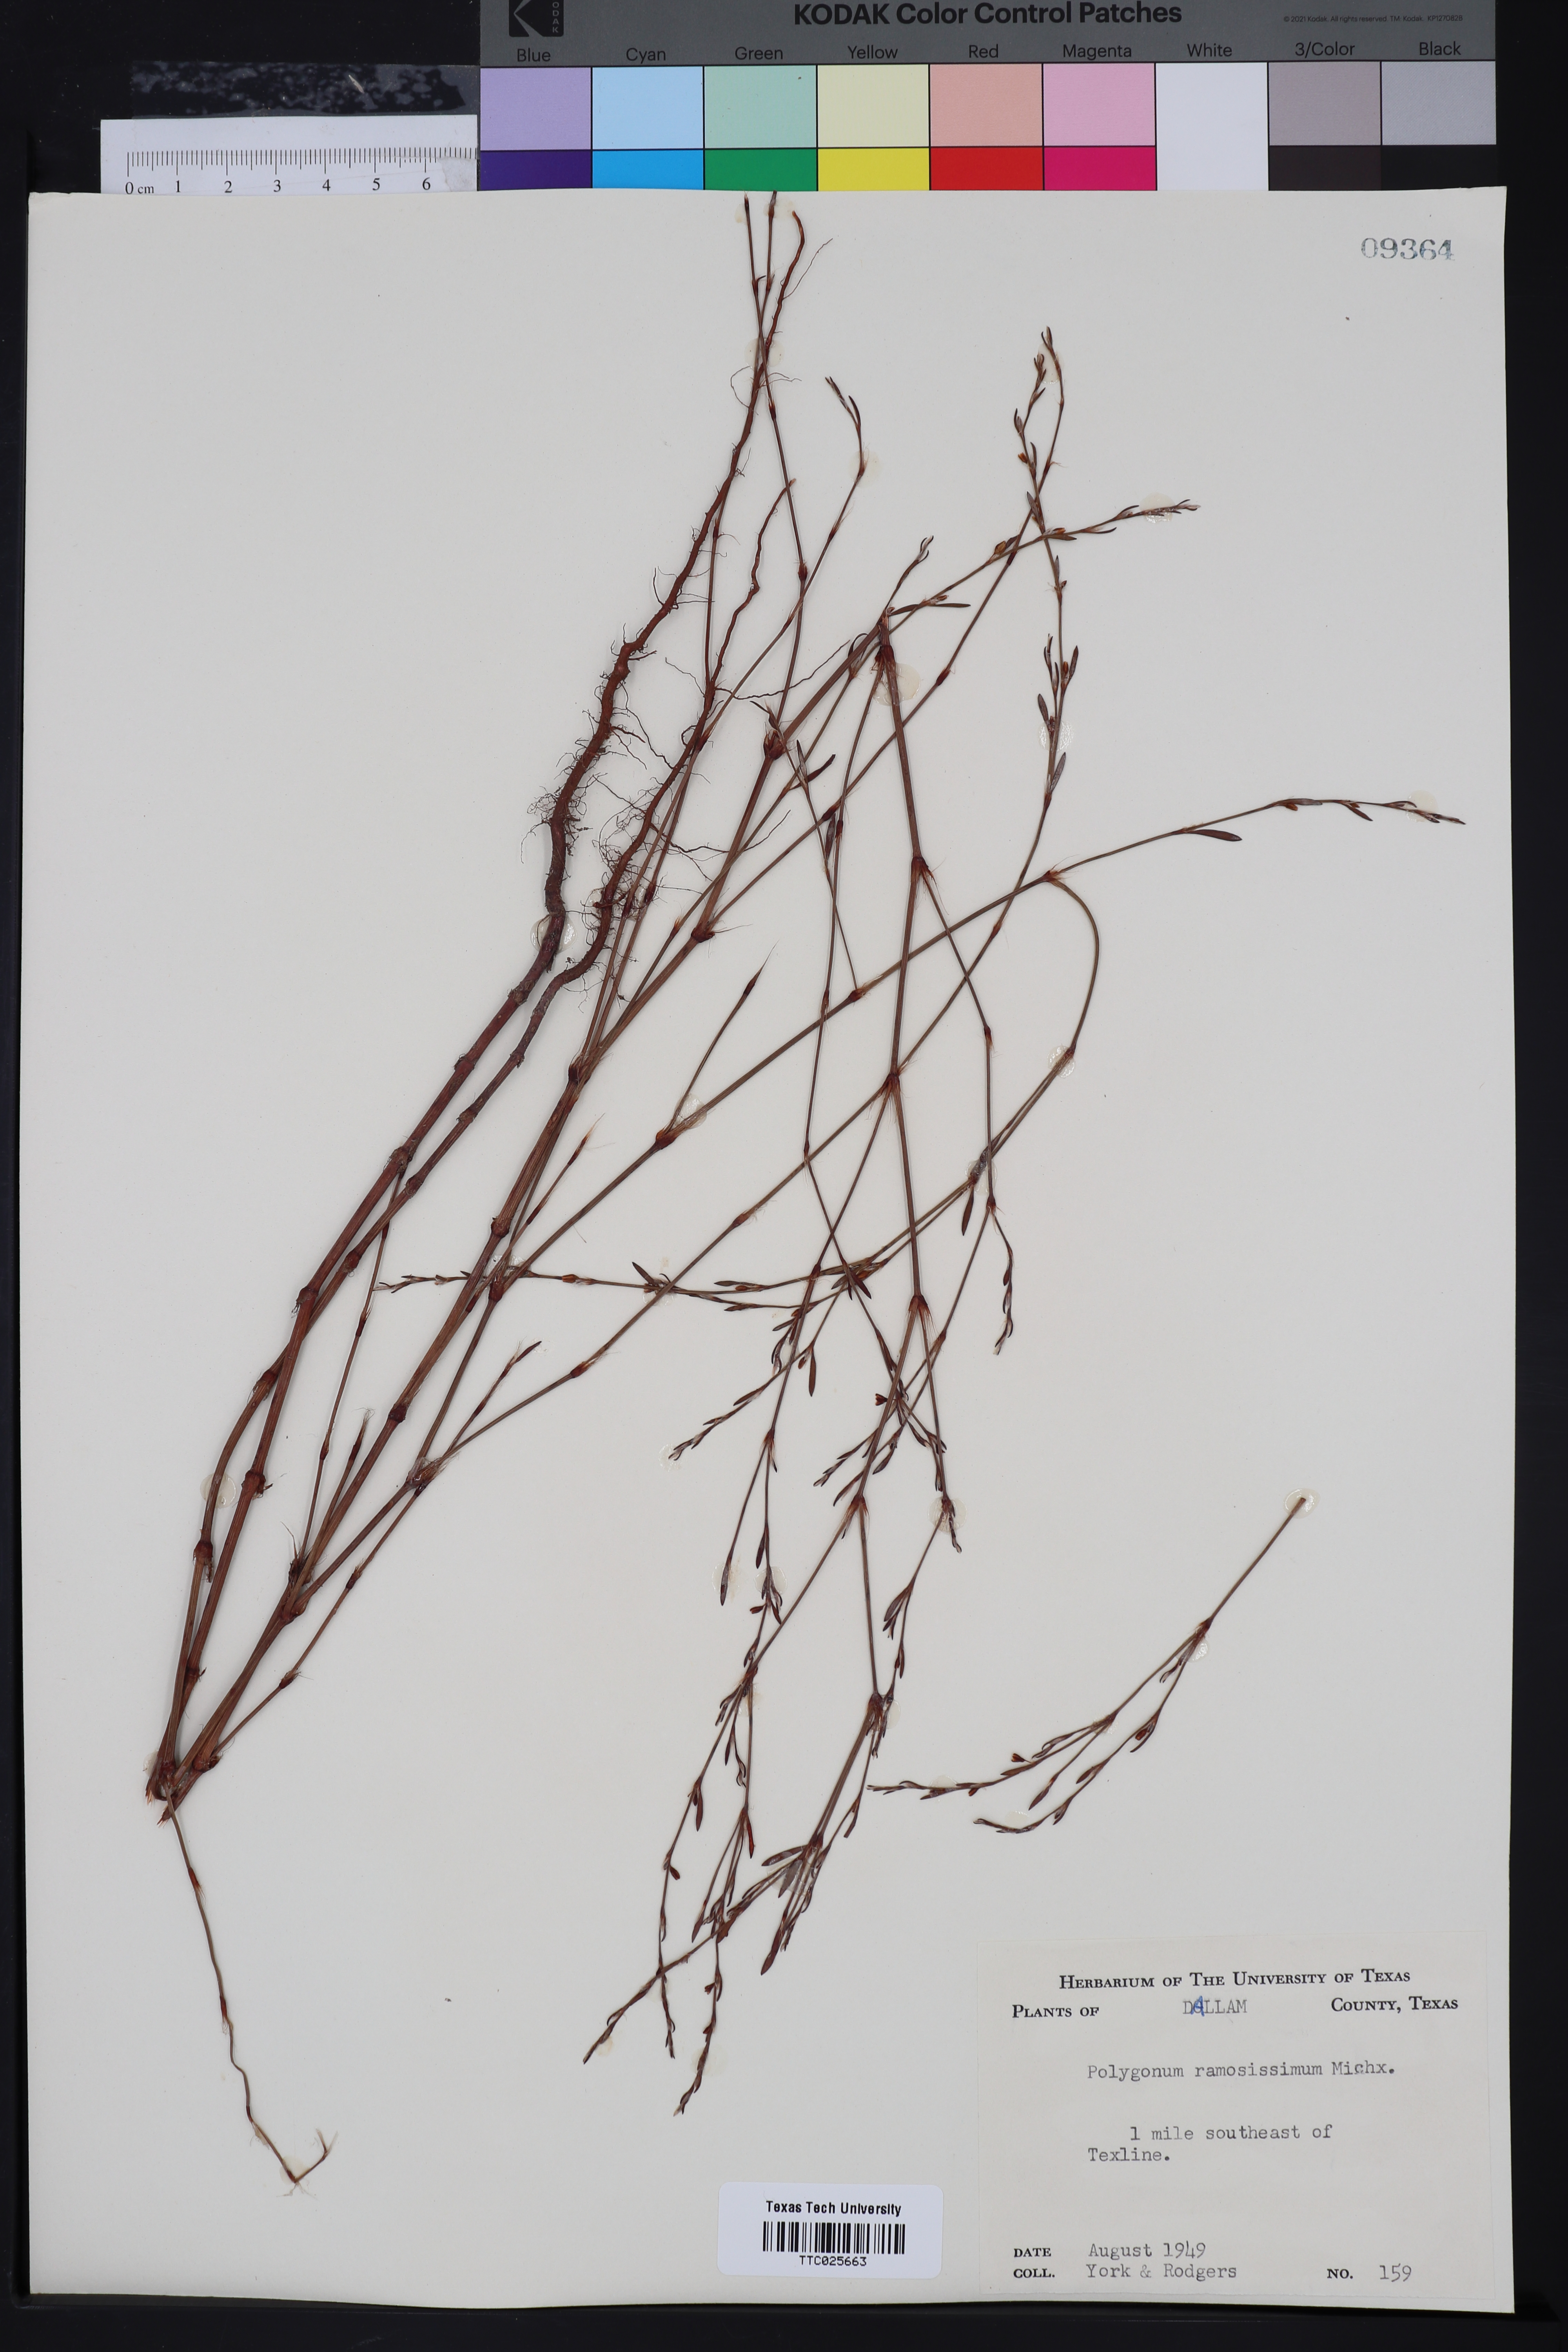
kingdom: Plantae
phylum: Tracheophyta
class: Magnoliopsida
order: Caryophyllales
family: Polygonaceae
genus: Polygonum
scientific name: Polygonum ramosissimum
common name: Bushy knotweed
